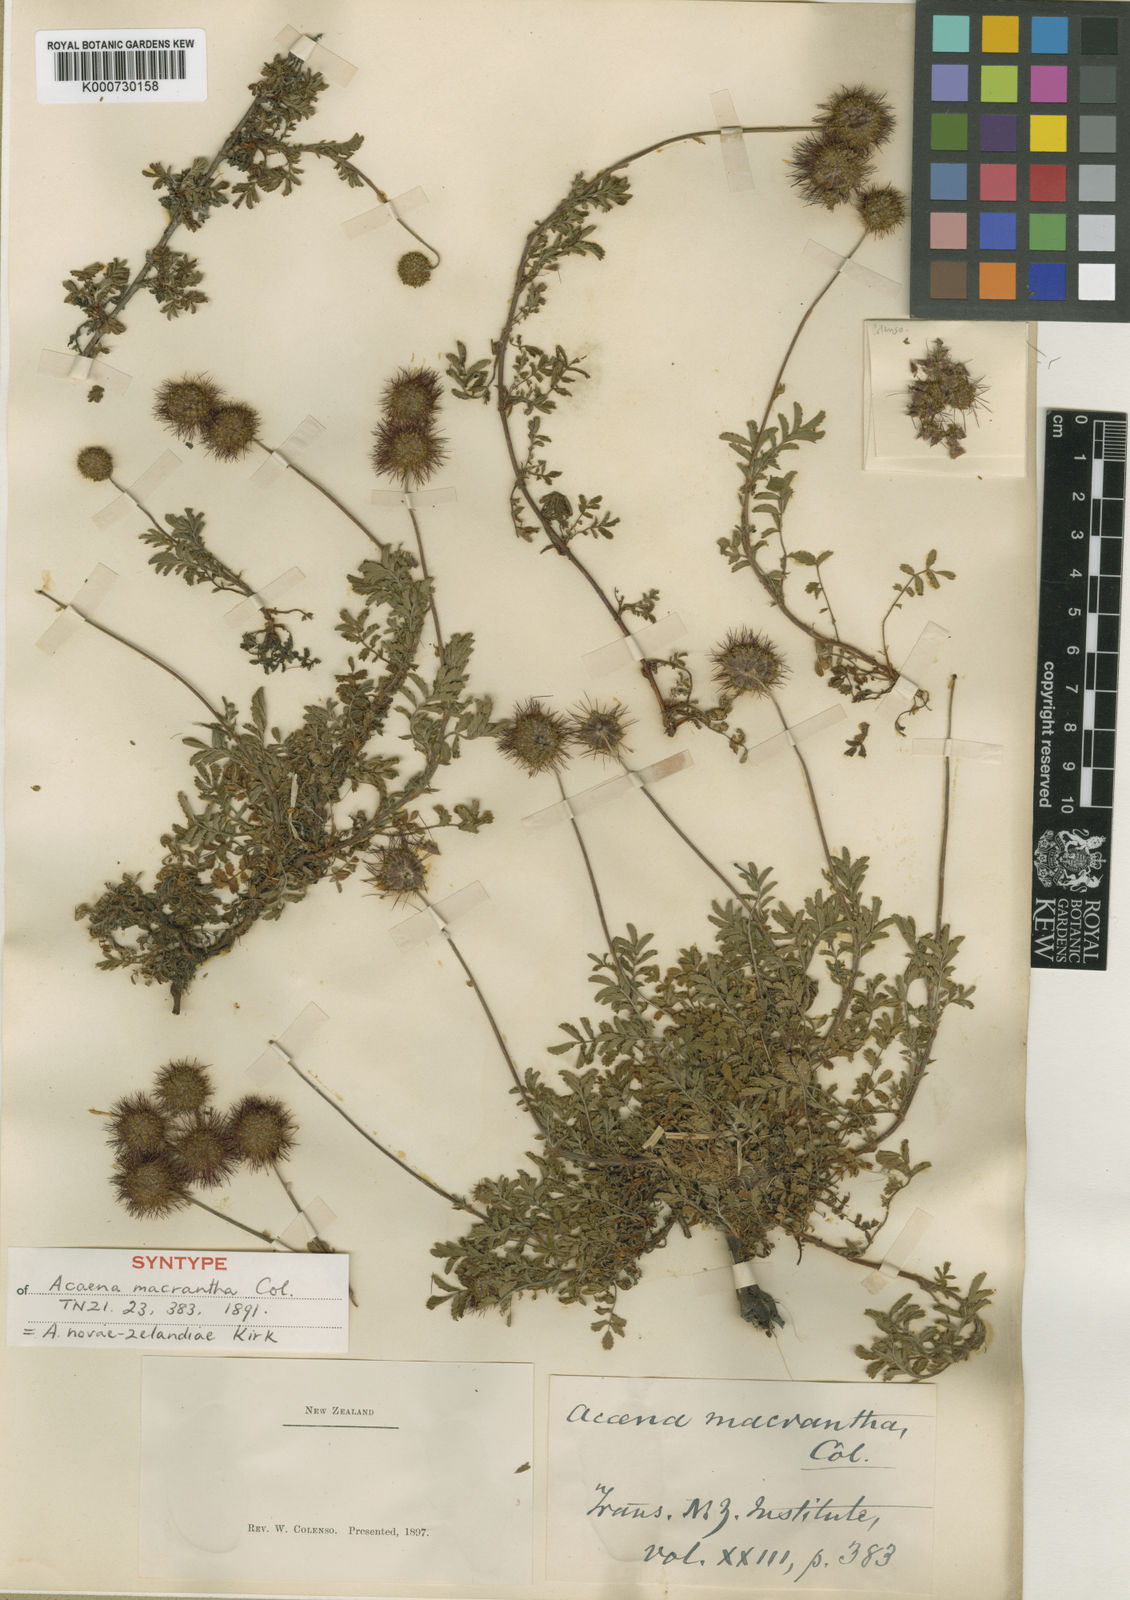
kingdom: Plantae
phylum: Tracheophyta
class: Magnoliopsida
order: Rosales
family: Rosaceae
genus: Acaena
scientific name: Acaena anserinifolia
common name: Bronze pirri-pirri-bur
